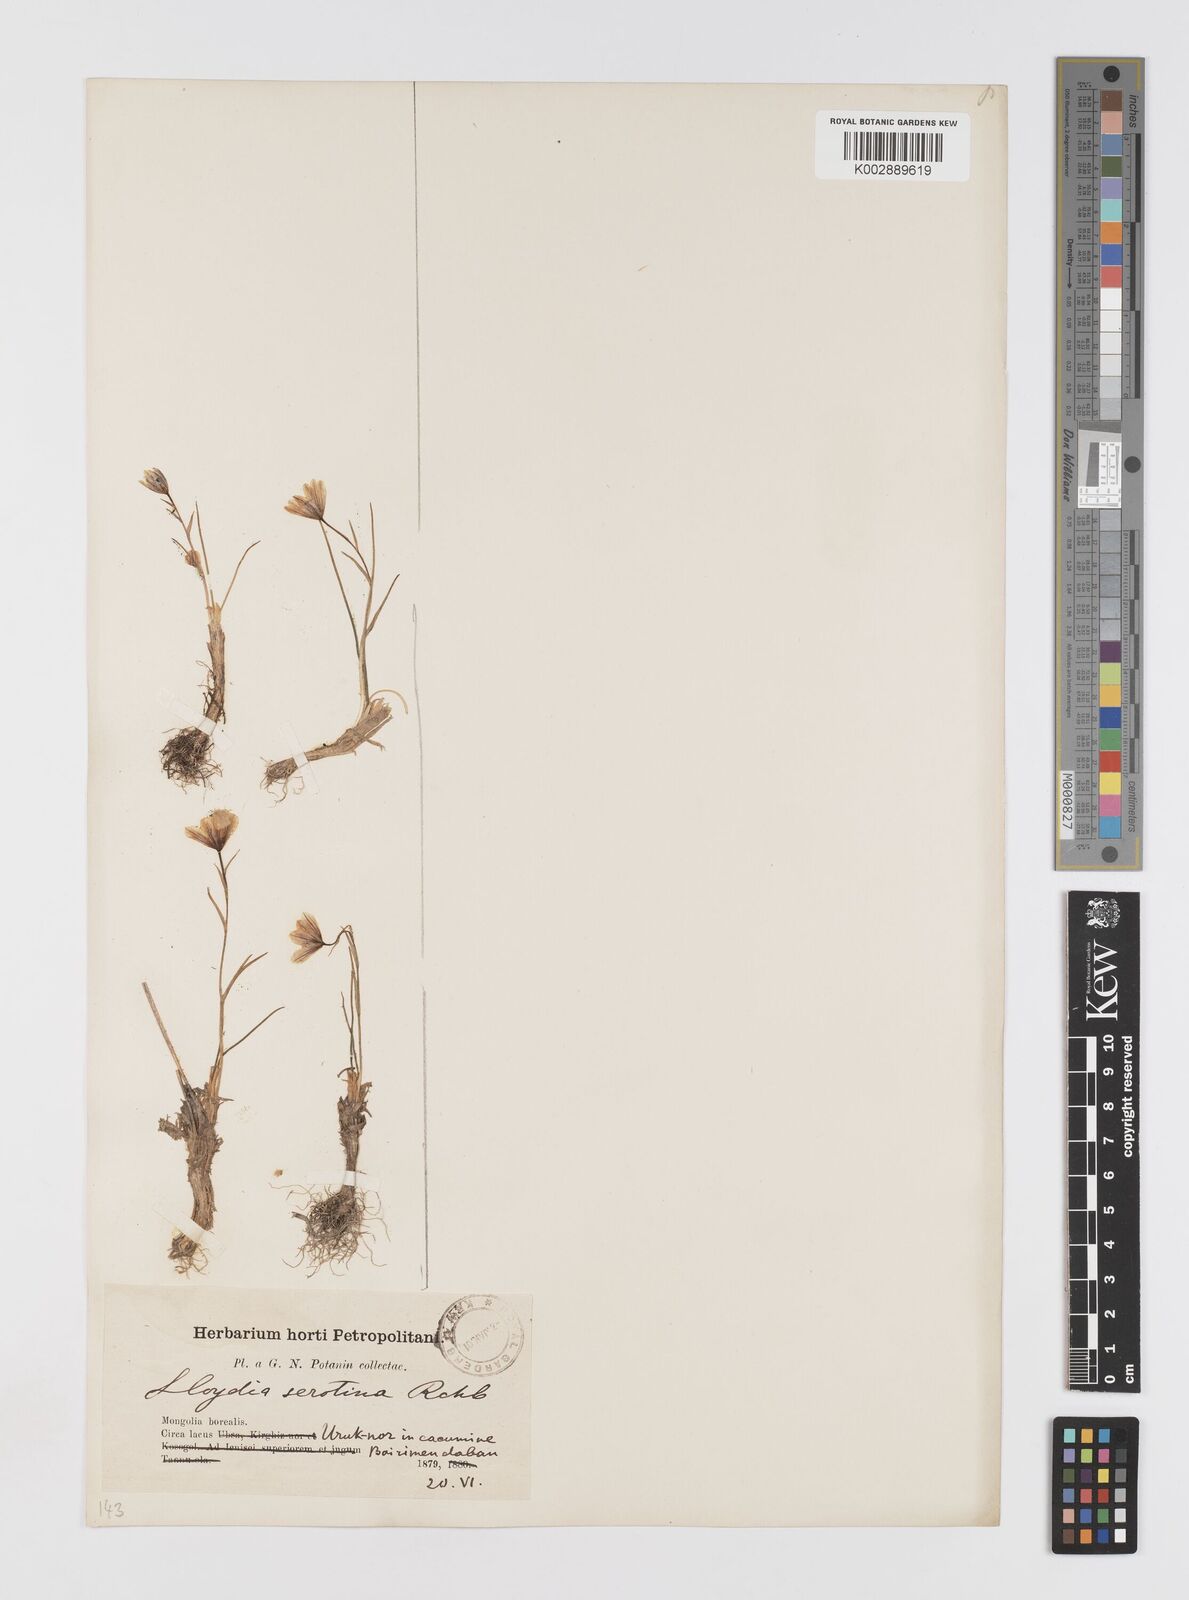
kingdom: Plantae
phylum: Tracheophyta
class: Liliopsida
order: Liliales
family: Liliaceae
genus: Gagea
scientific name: Gagea serotina
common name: Snowdon lily
